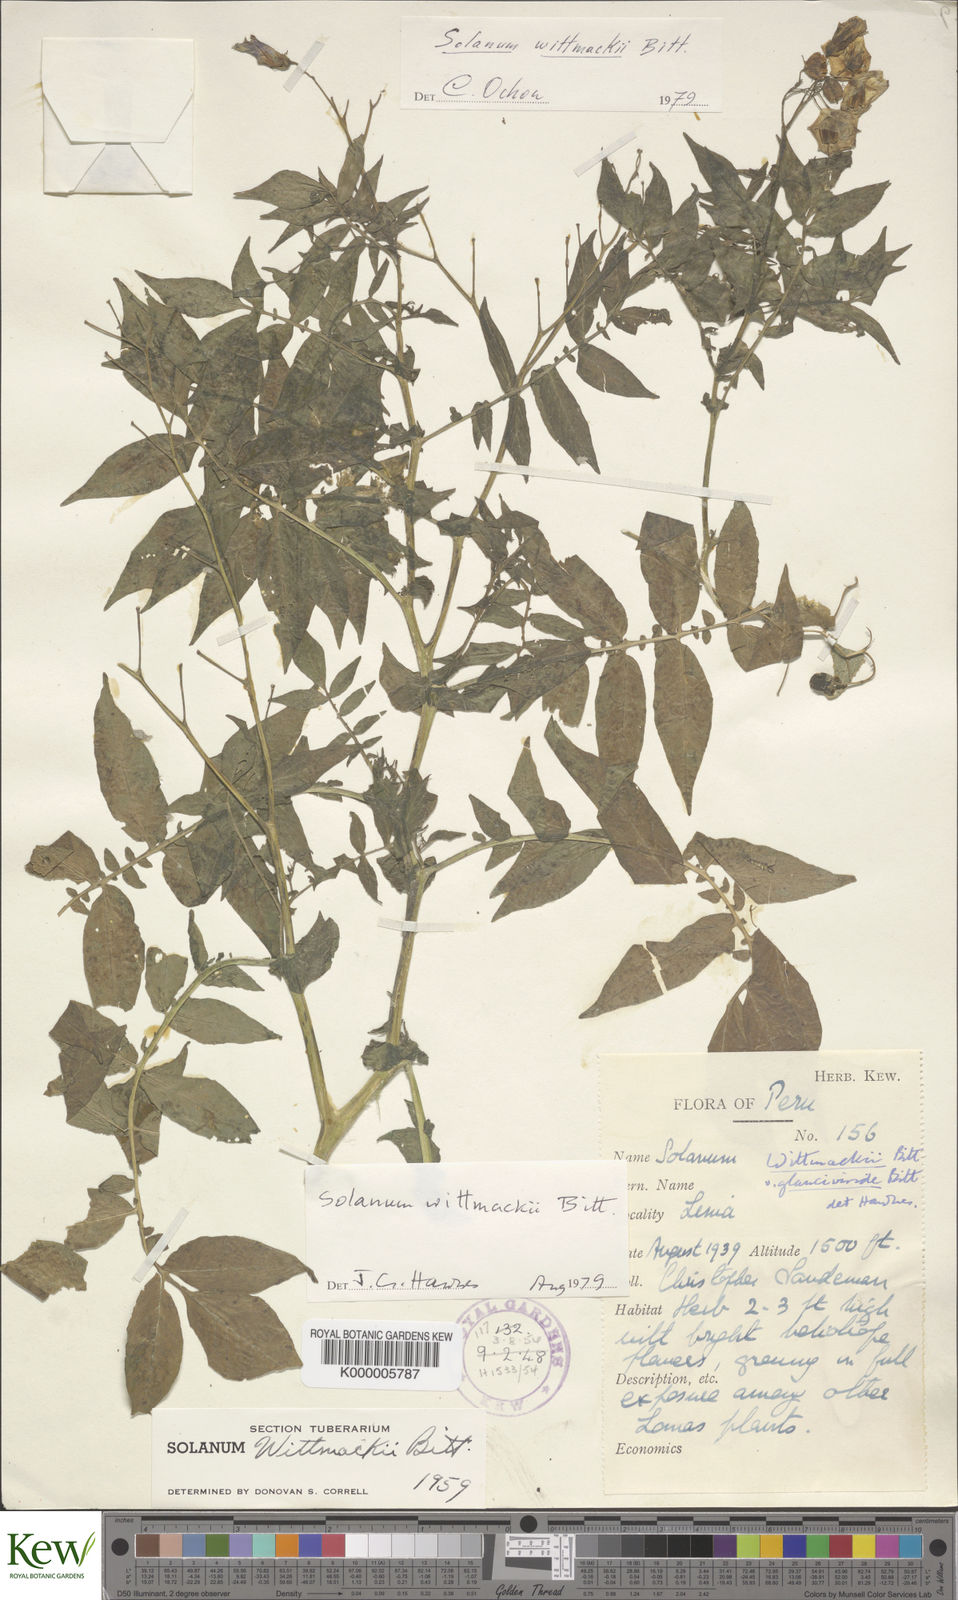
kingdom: Plantae
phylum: Tracheophyta
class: Magnoliopsida
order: Solanales
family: Solanaceae
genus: Solanum
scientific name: Solanum wittmackii
